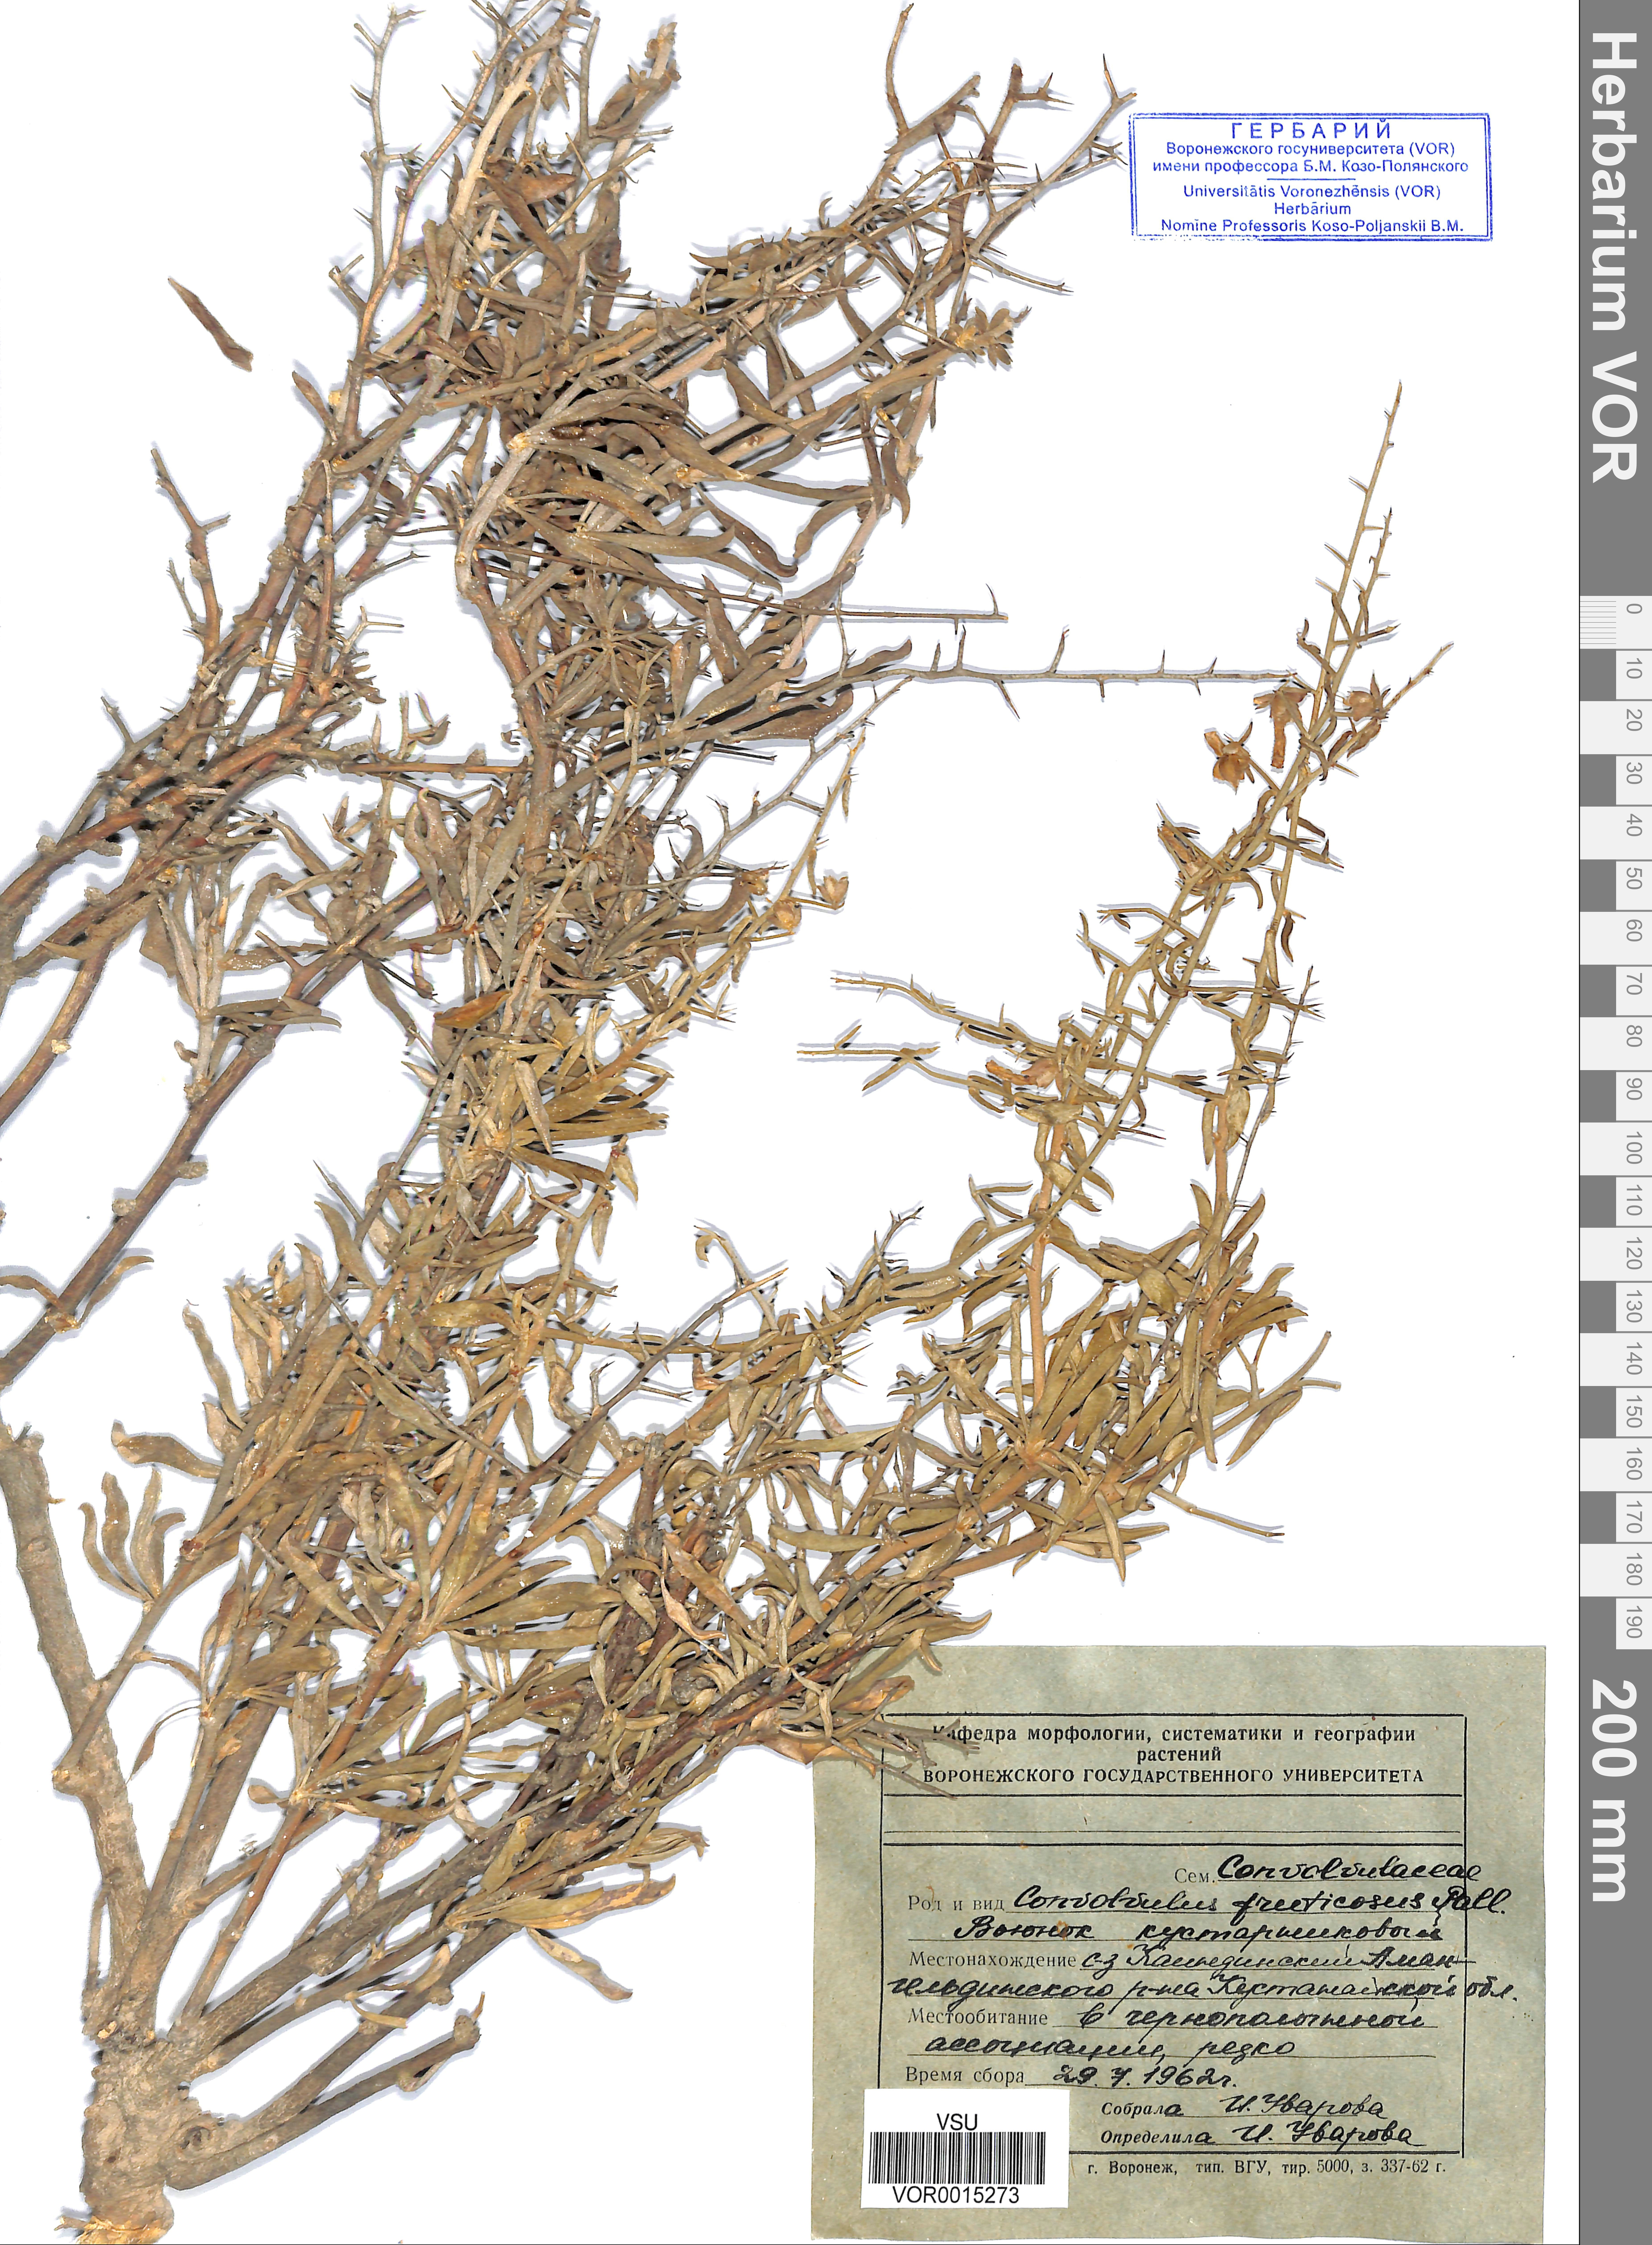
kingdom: Plantae
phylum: Tracheophyta
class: Magnoliopsida
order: Solanales
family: Convolvulaceae
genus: Convolvulus
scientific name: Convolvulus fruticosus
